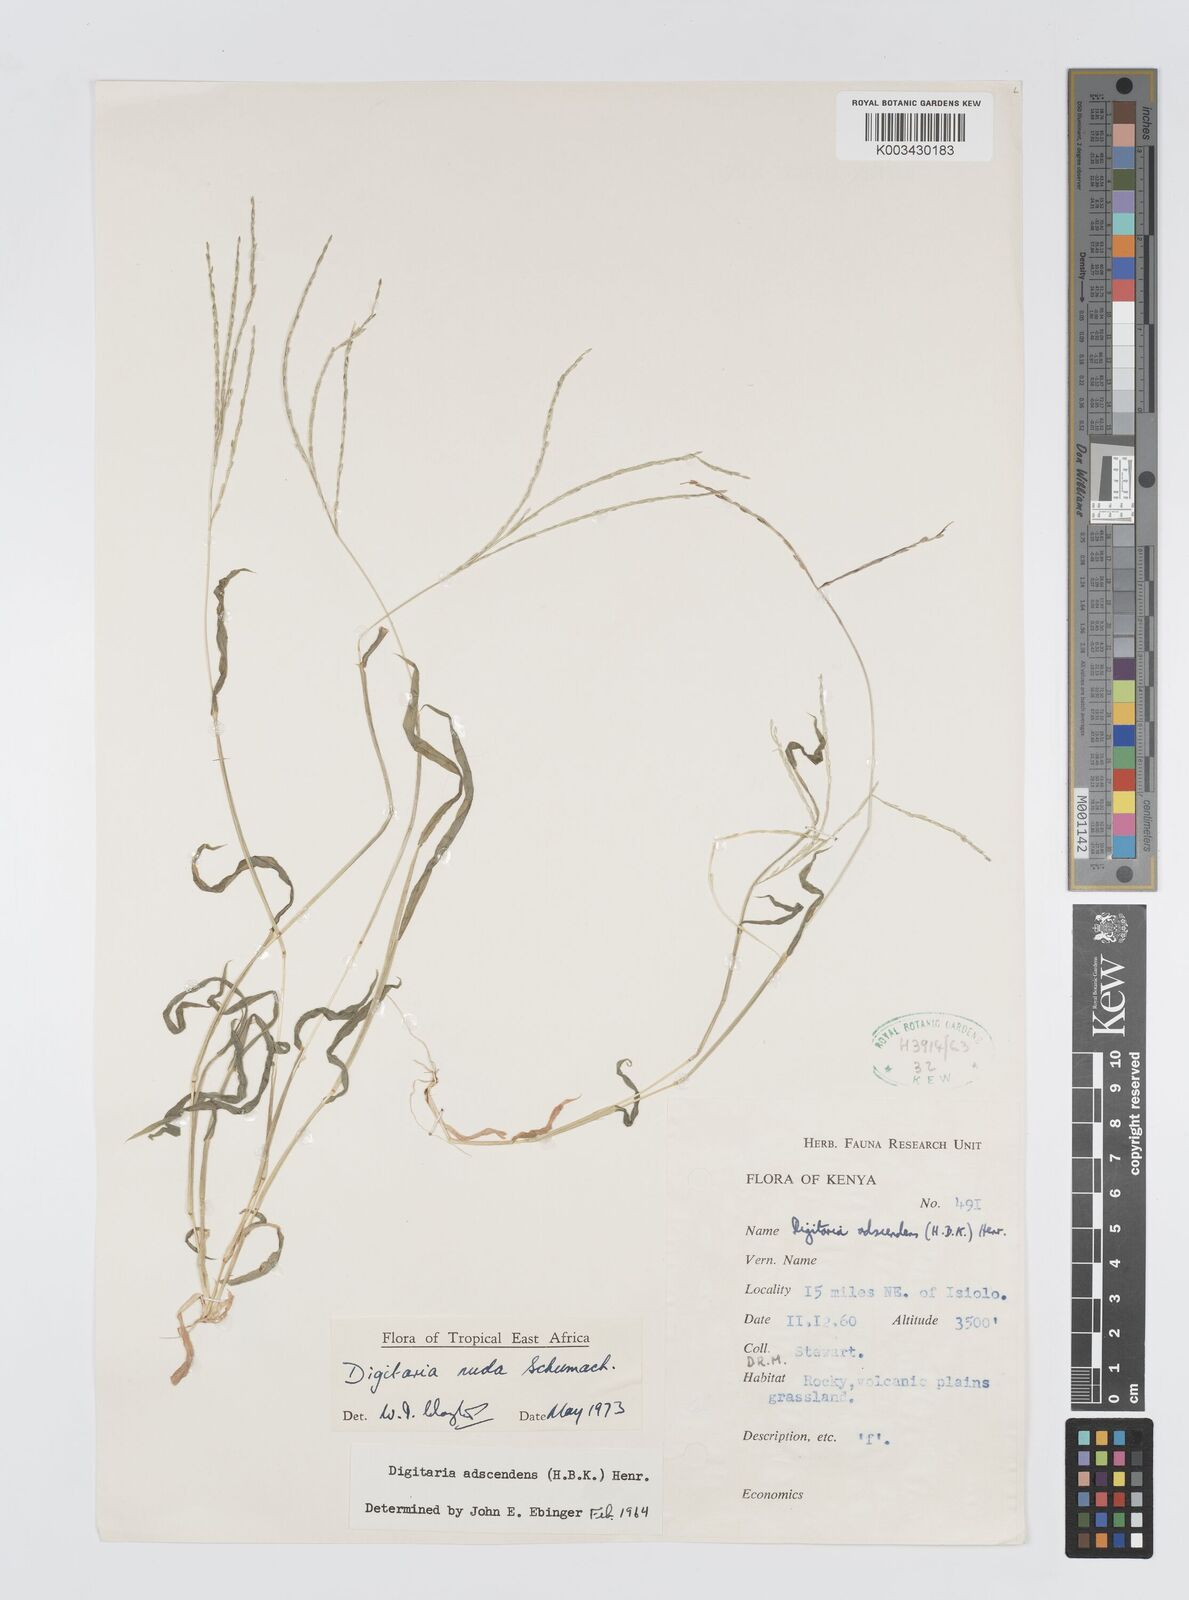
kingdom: Plantae
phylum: Tracheophyta
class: Liliopsida
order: Poales
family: Poaceae
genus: Digitaria
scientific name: Digitaria nuda
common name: Naked crabgrass
